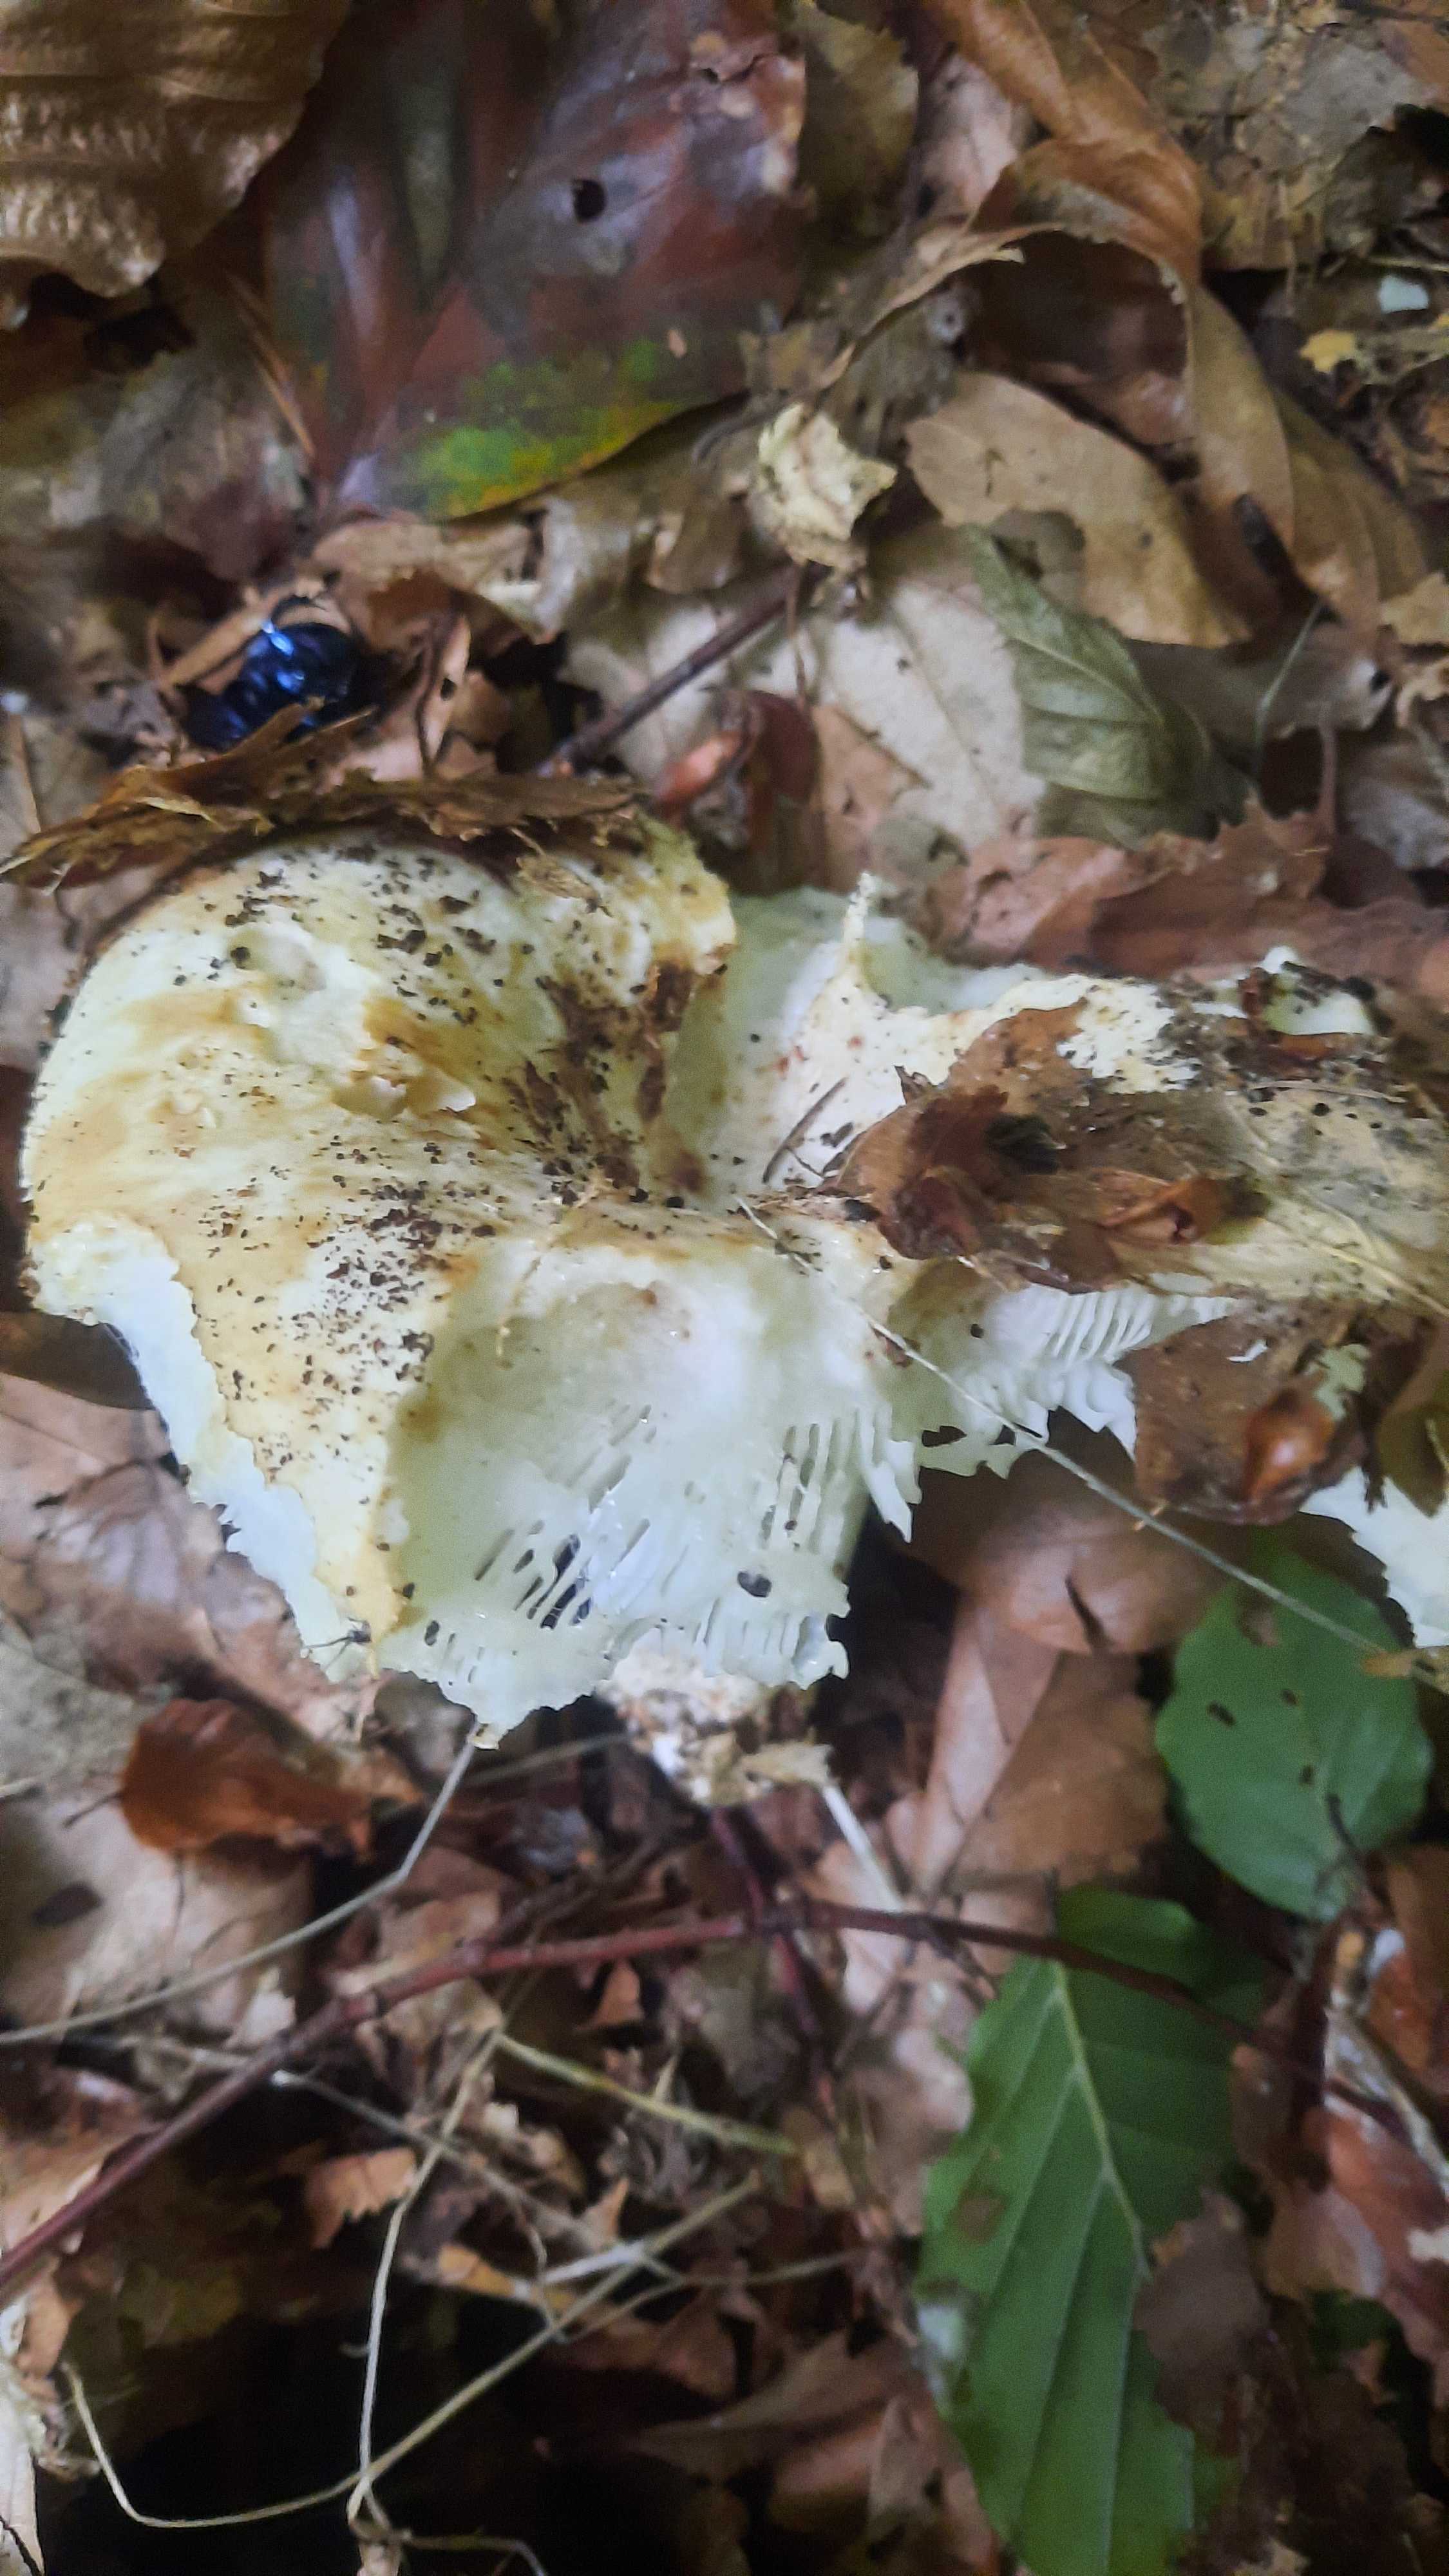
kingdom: Fungi
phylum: Basidiomycota
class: Agaricomycetes
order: Russulales
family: Russulaceae
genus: Russula
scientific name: Russula delica
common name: almindelig tragt-skørhat
